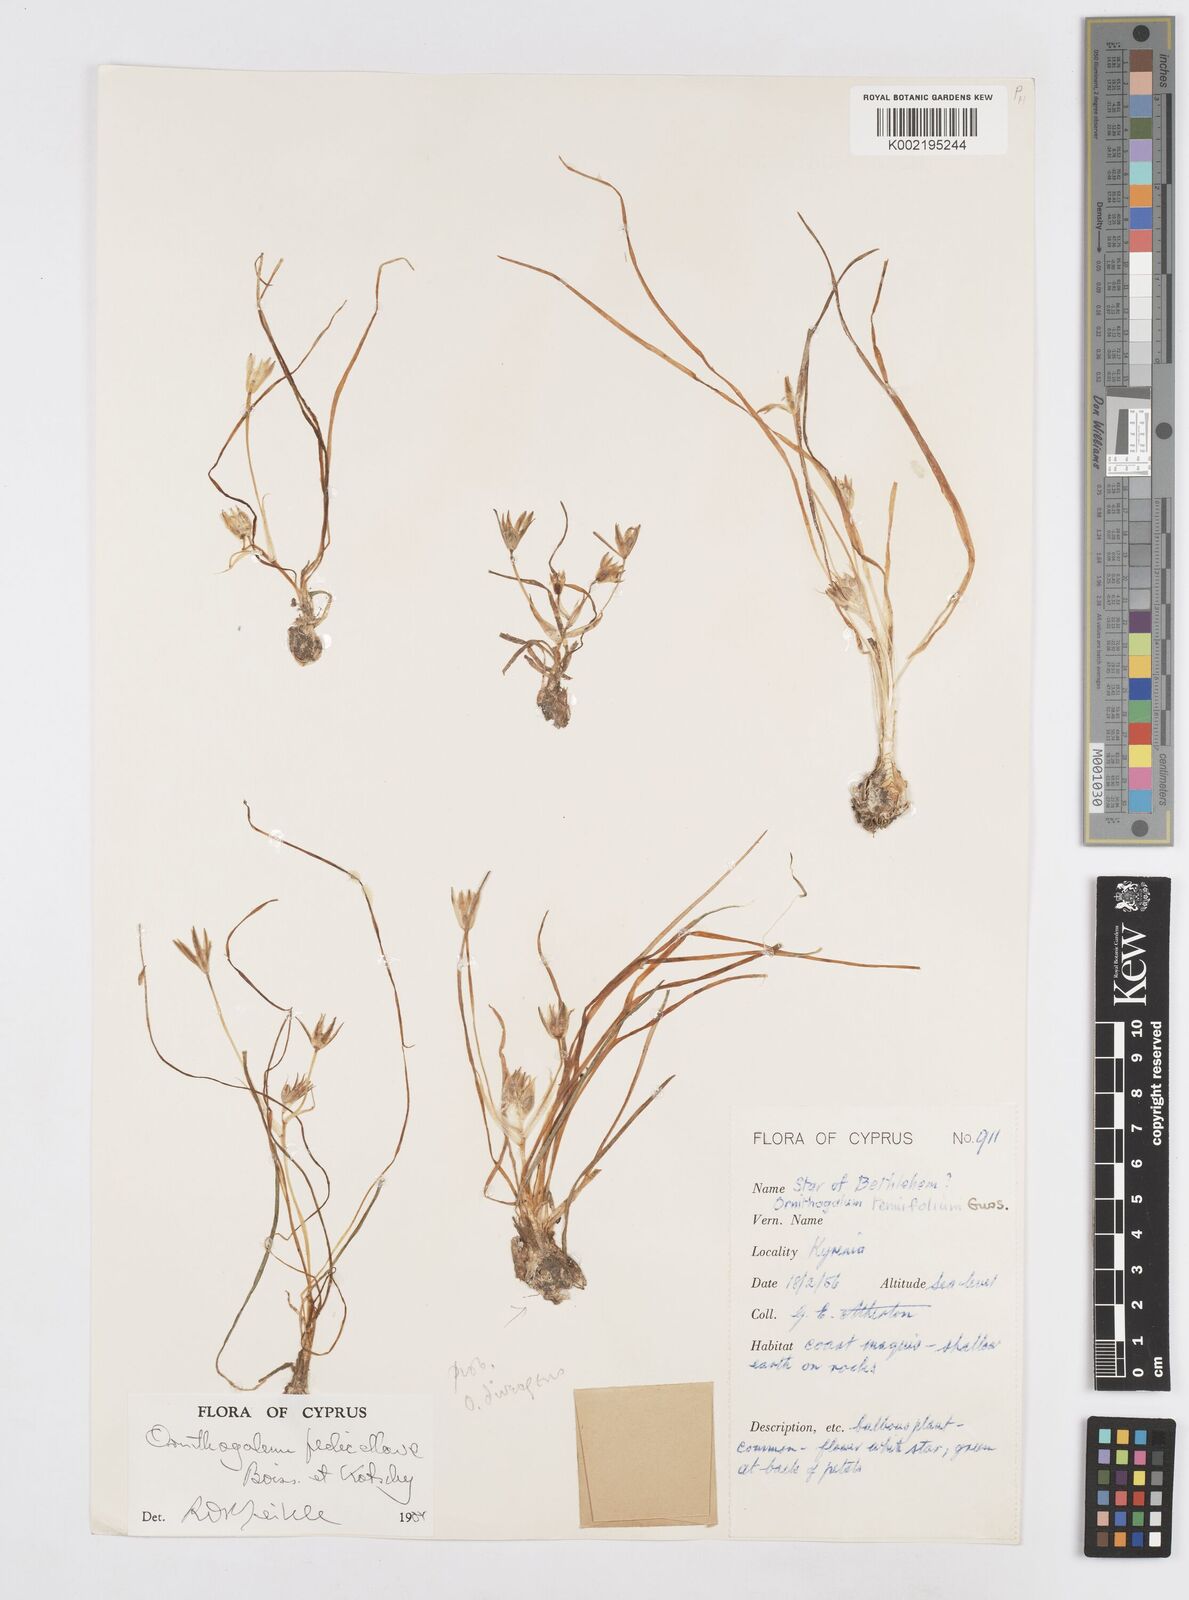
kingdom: Plantae
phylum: Tracheophyta
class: Liliopsida
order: Asparagales
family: Asparagaceae
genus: Ornithogalum
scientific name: Ornithogalum pedicellare
